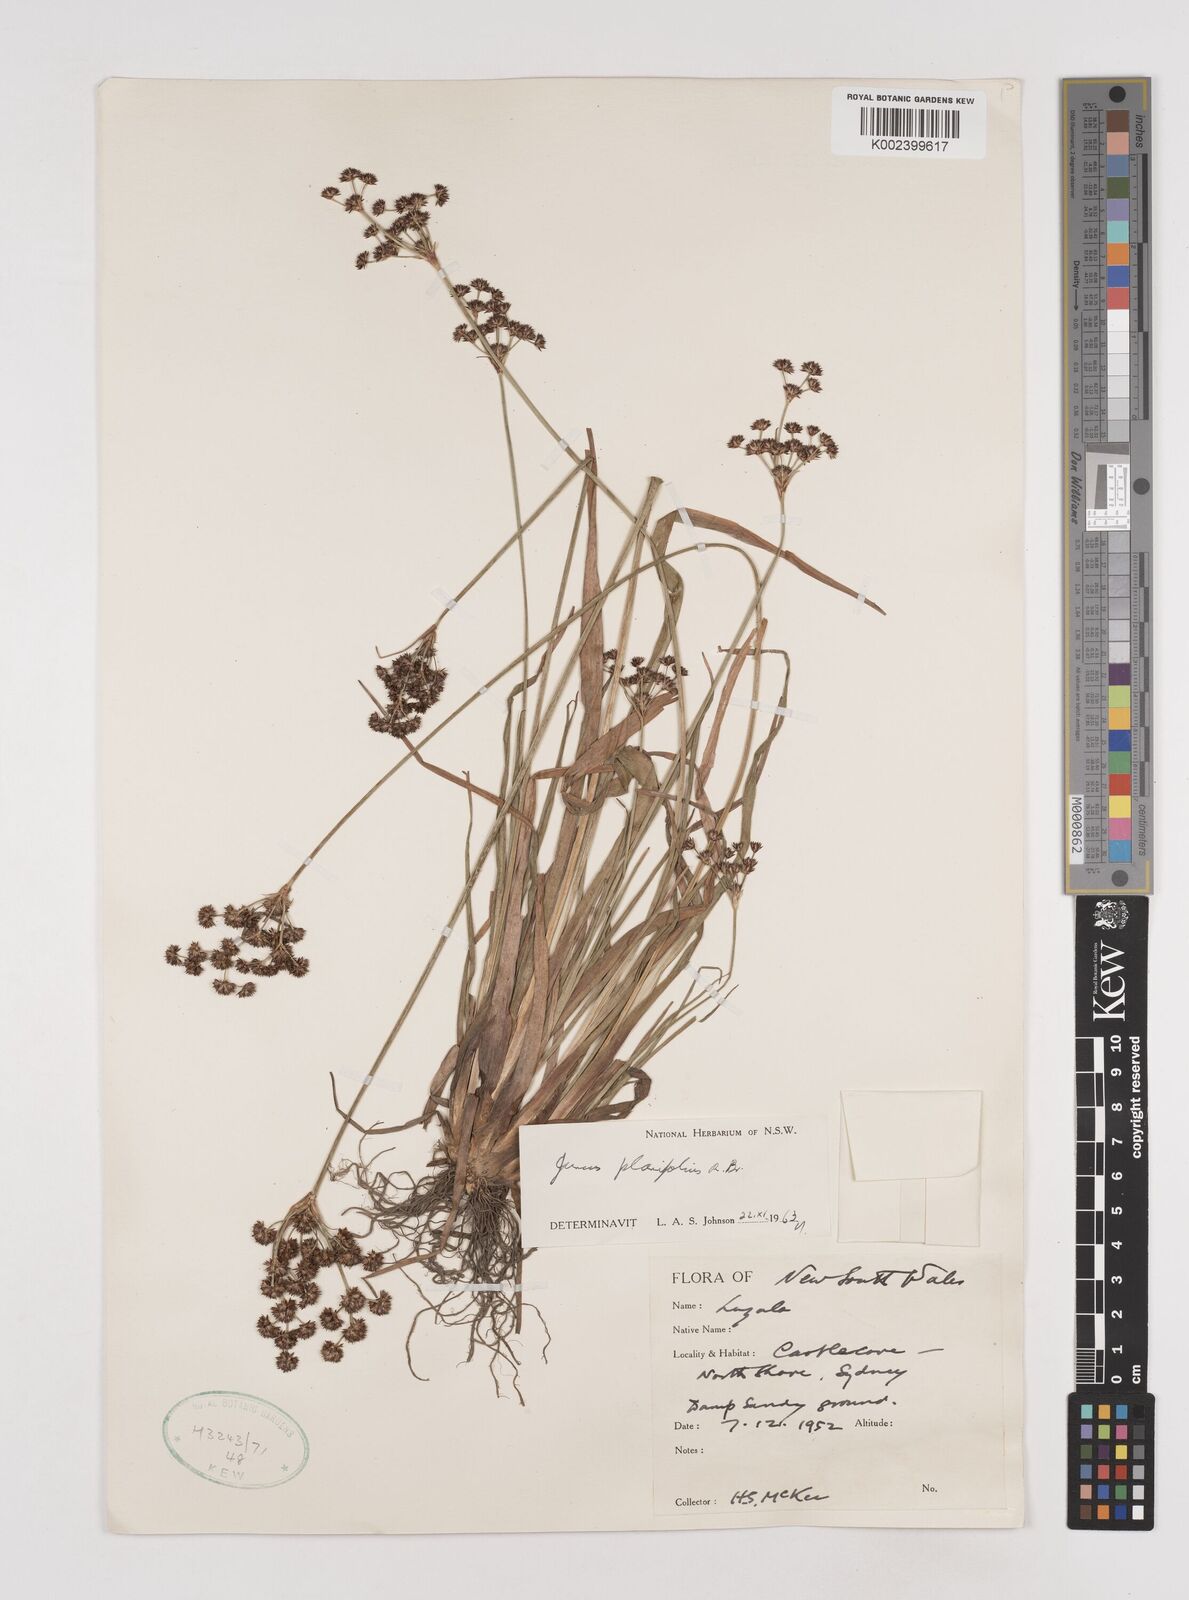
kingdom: Plantae
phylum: Tracheophyta
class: Liliopsida
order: Poales
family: Juncaceae
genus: Juncus
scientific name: Juncus planifolius
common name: Broadleaf rush
